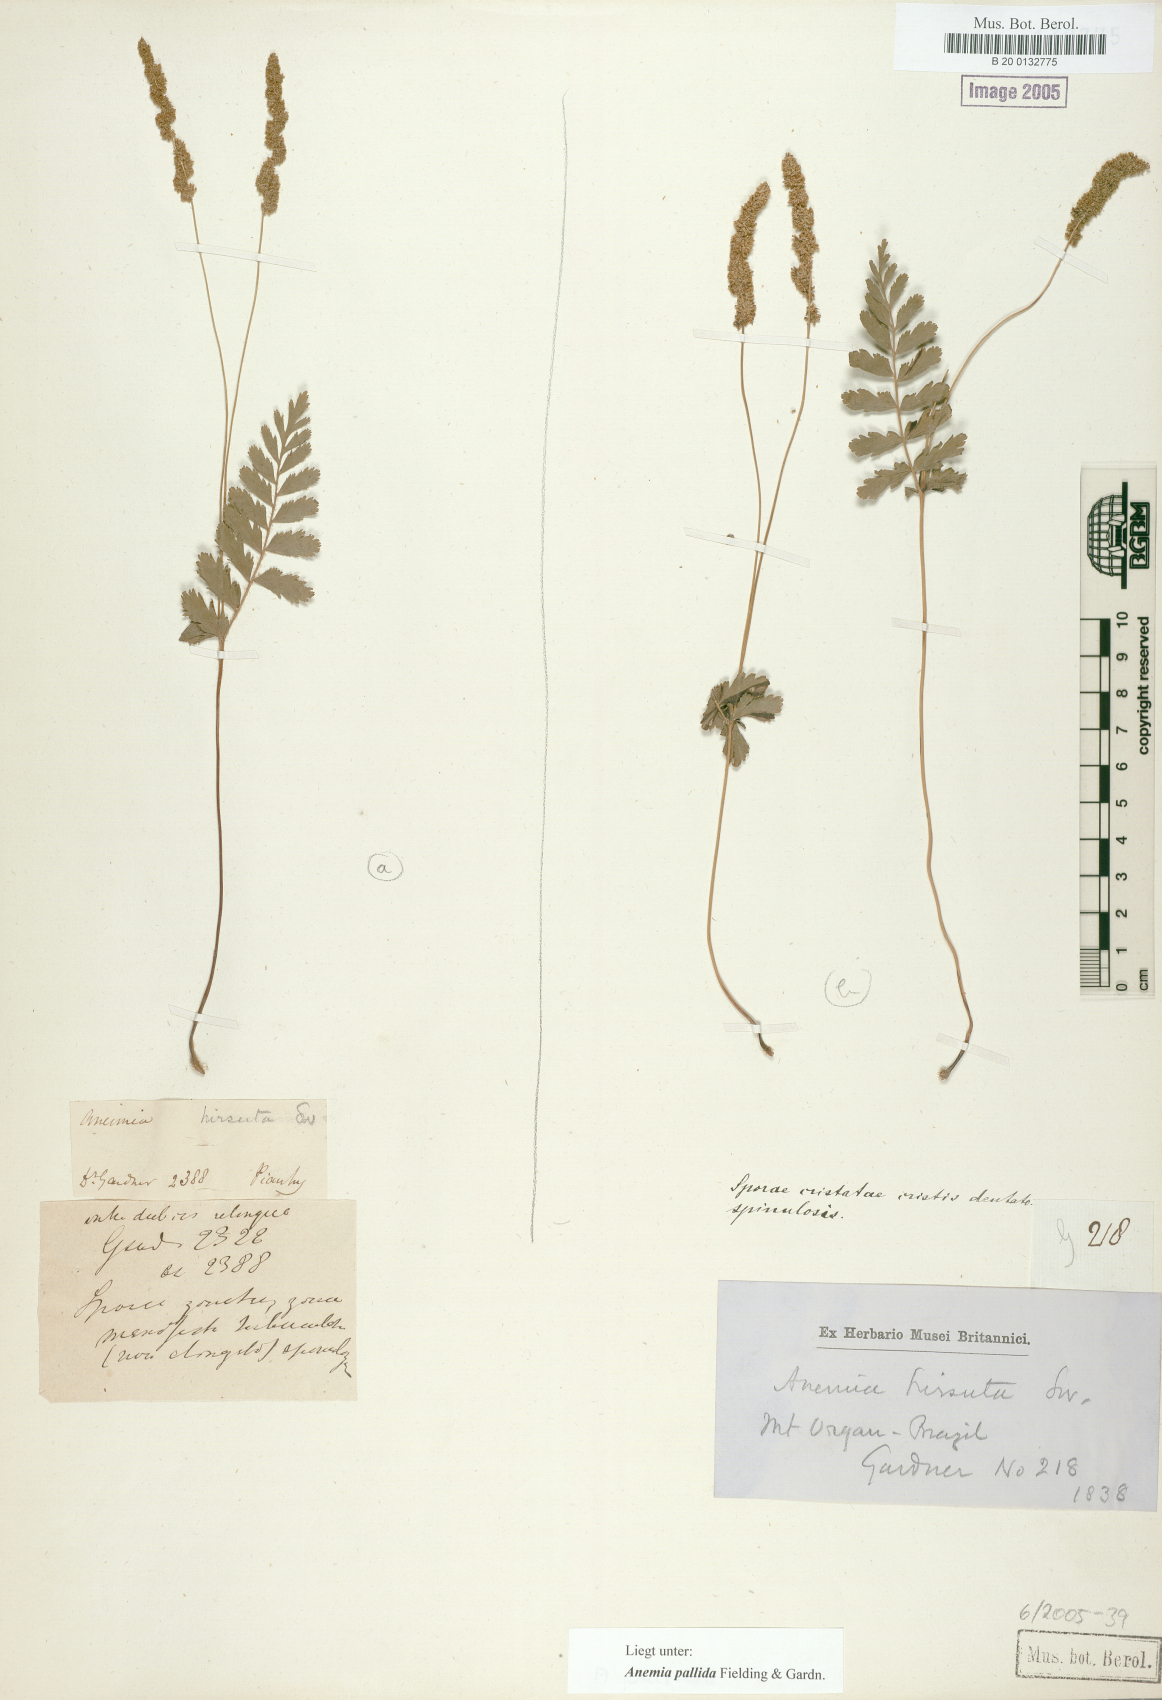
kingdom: Plantae
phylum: Tracheophyta
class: Polypodiopsida
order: Schizaeales
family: Anemiaceae
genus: Anemia
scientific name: Anemia hirsuta
